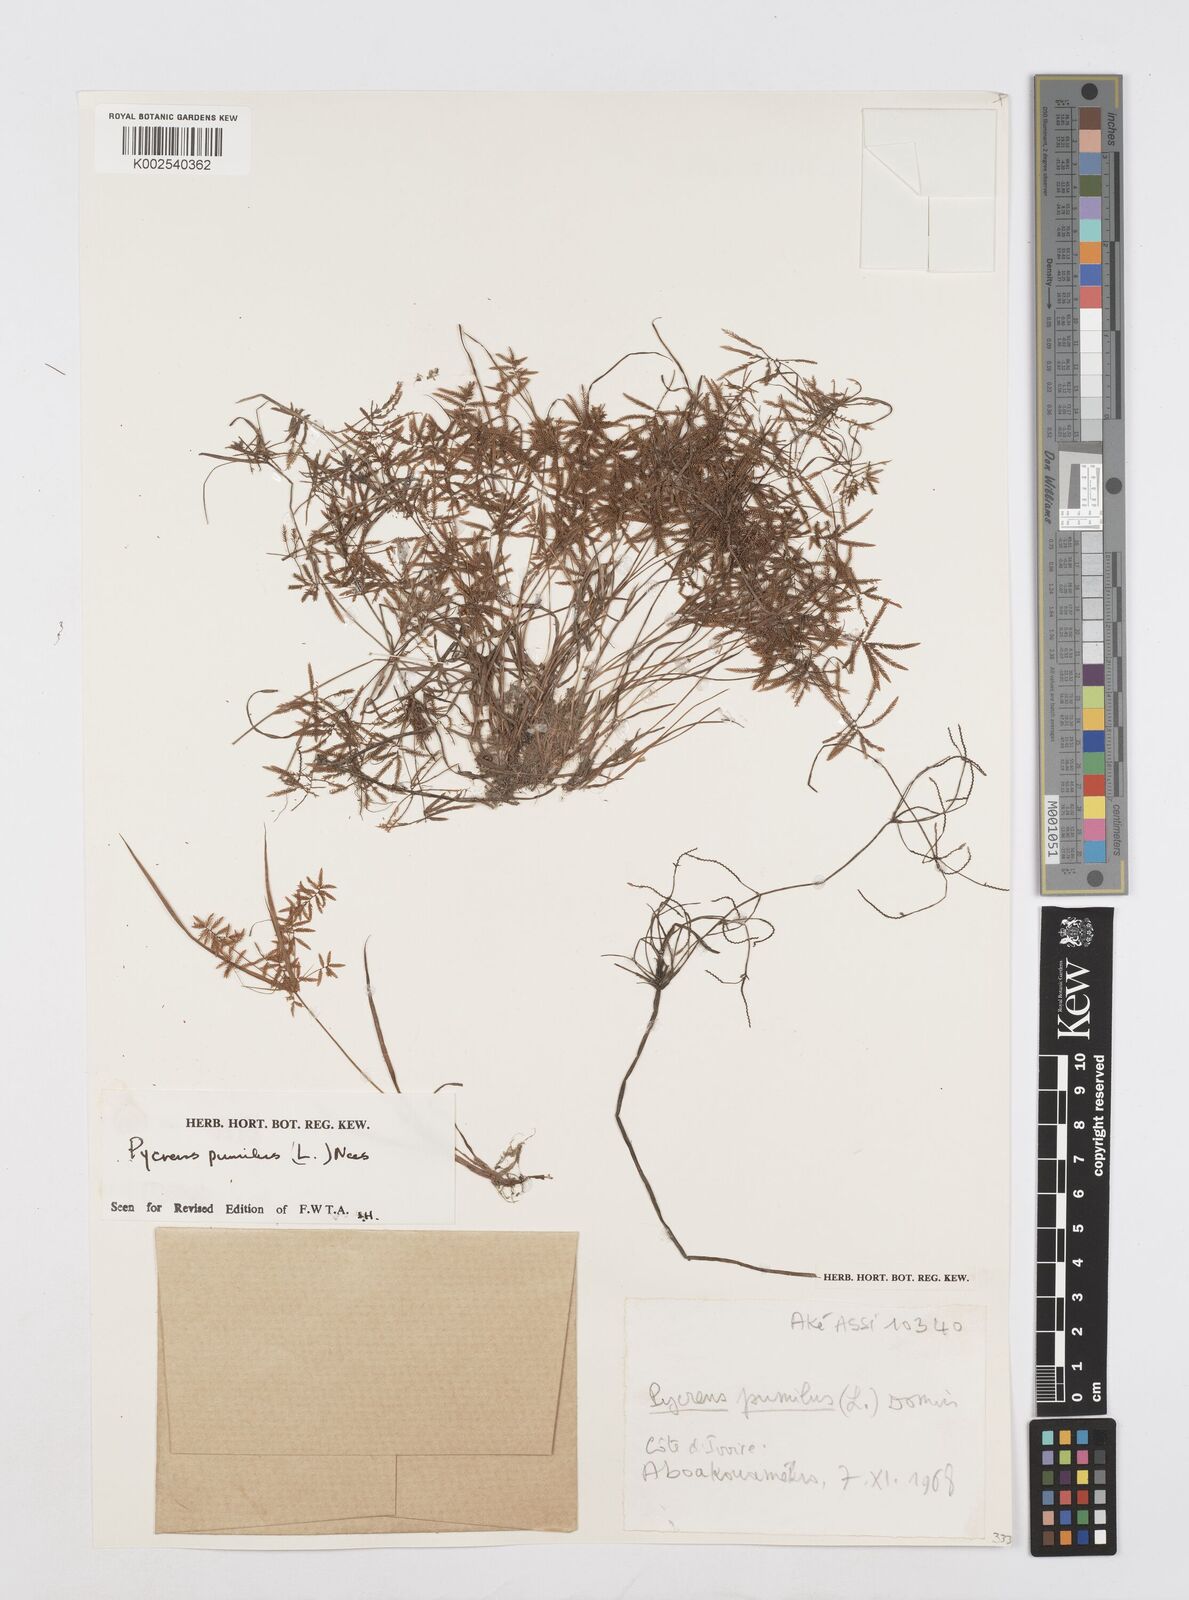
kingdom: Plantae
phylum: Tracheophyta
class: Liliopsida
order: Poales
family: Cyperaceae
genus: Cyperus
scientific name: Cyperus pumilus
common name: Low flatsedge
